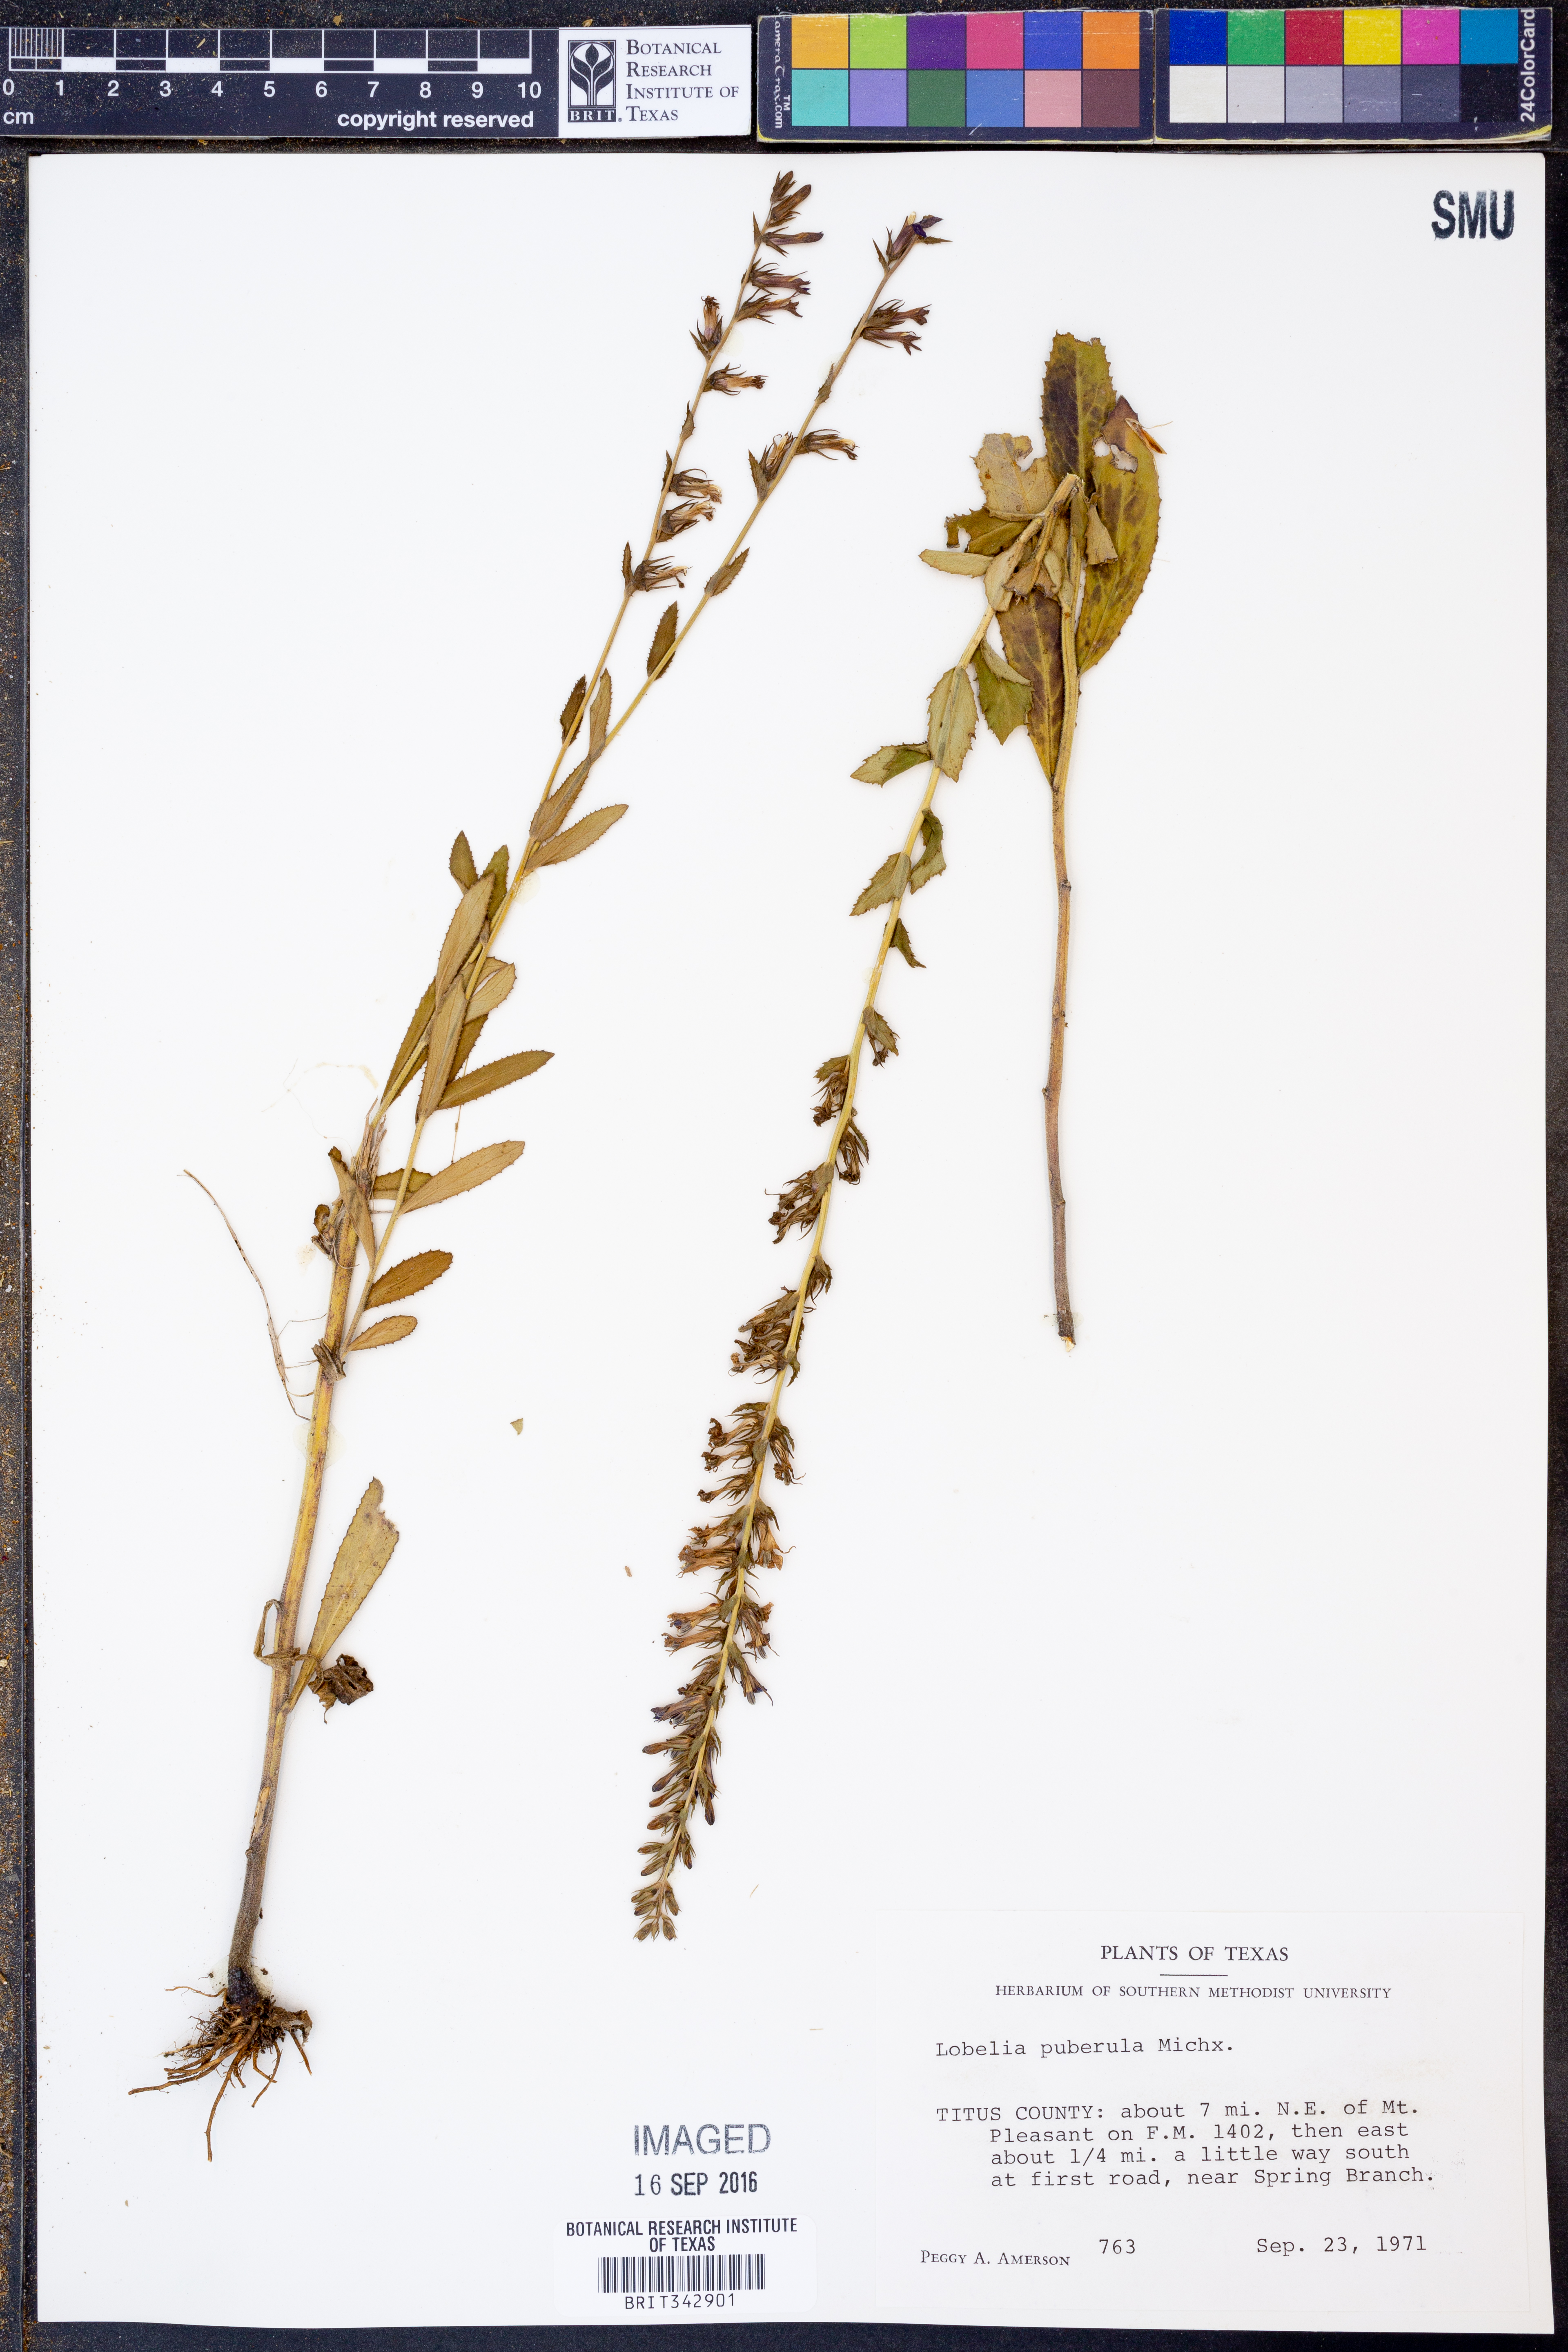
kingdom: Plantae
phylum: Tracheophyta
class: Magnoliopsida
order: Asterales
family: Campanulaceae
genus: Lobelia
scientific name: Lobelia puberula
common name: Purple dewdrop
